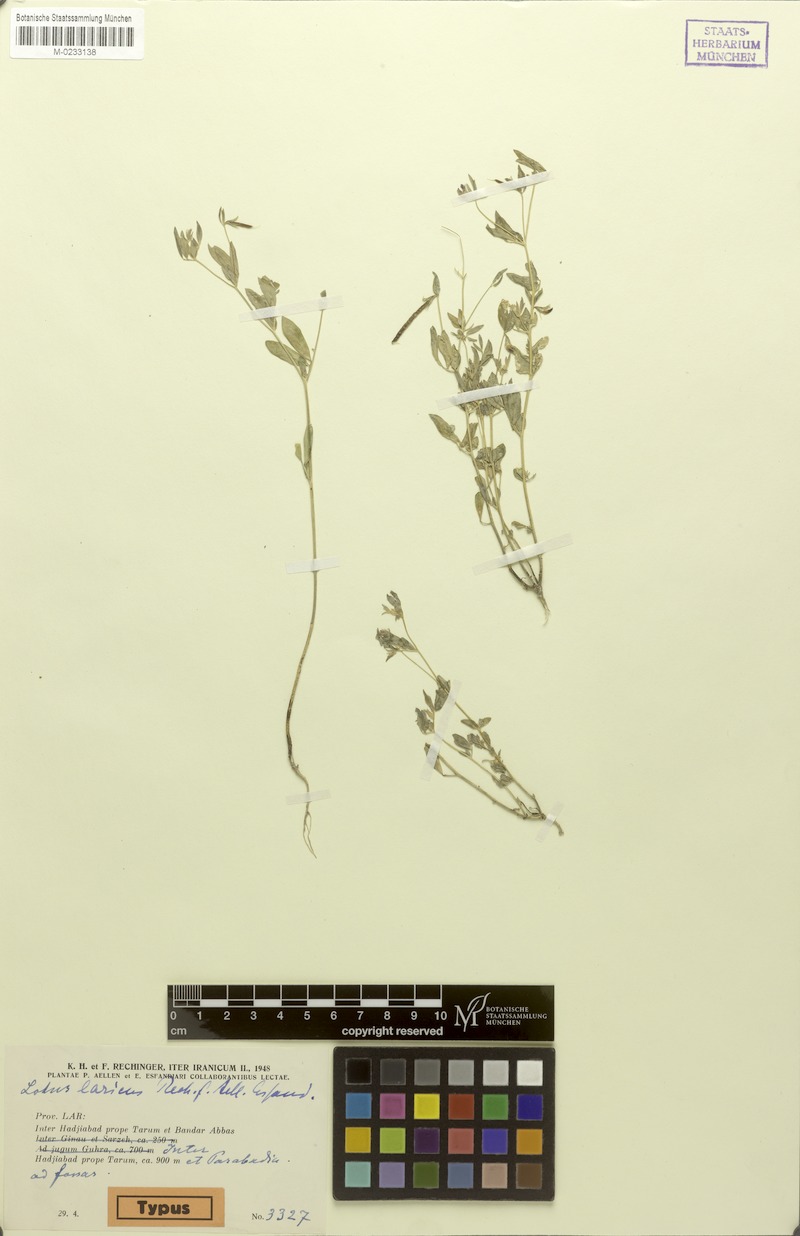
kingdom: Plantae
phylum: Tracheophyta
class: Magnoliopsida
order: Fabales
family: Fabaceae
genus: Lotus
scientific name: Lotus laricus
